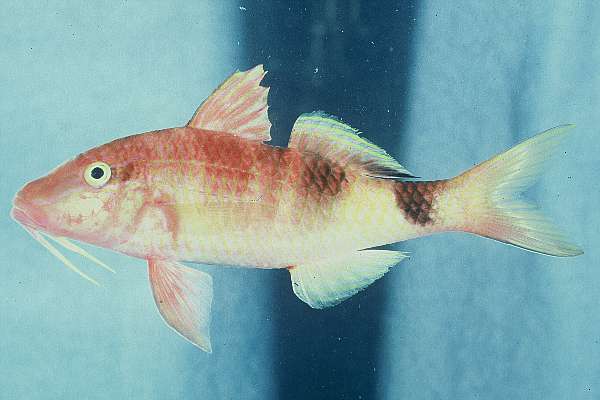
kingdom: Animalia
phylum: Chordata
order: Perciformes
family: Mullidae
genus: Parupeneus
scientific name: Parupeneus trifasciatus
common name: Doublebar goatfish
